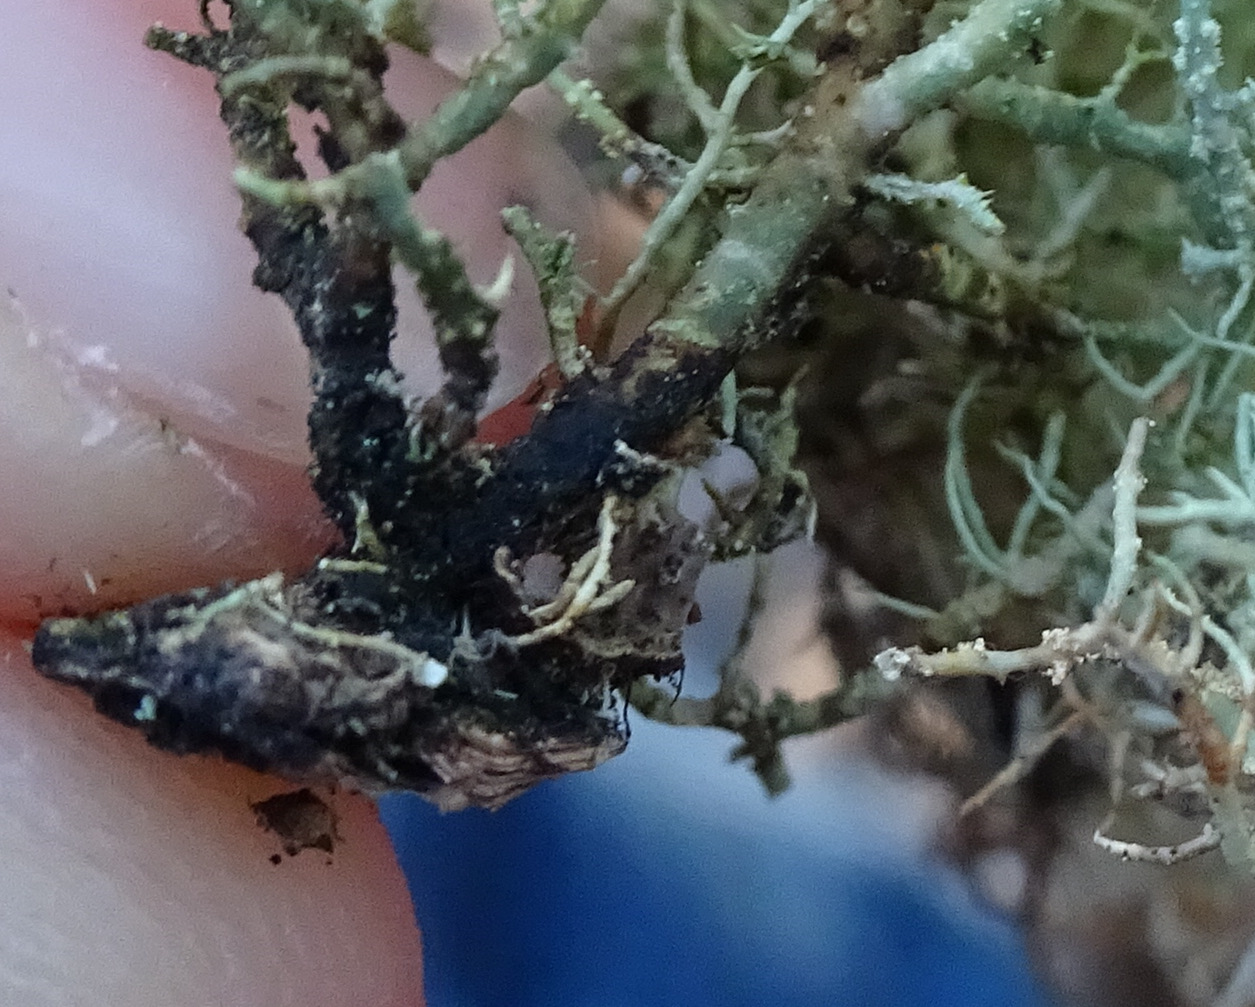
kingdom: Fungi
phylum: Ascomycota
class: Lecanoromycetes
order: Lecanorales
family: Parmeliaceae
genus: Usnea
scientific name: Usnea subfloridana
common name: busket skæglav
